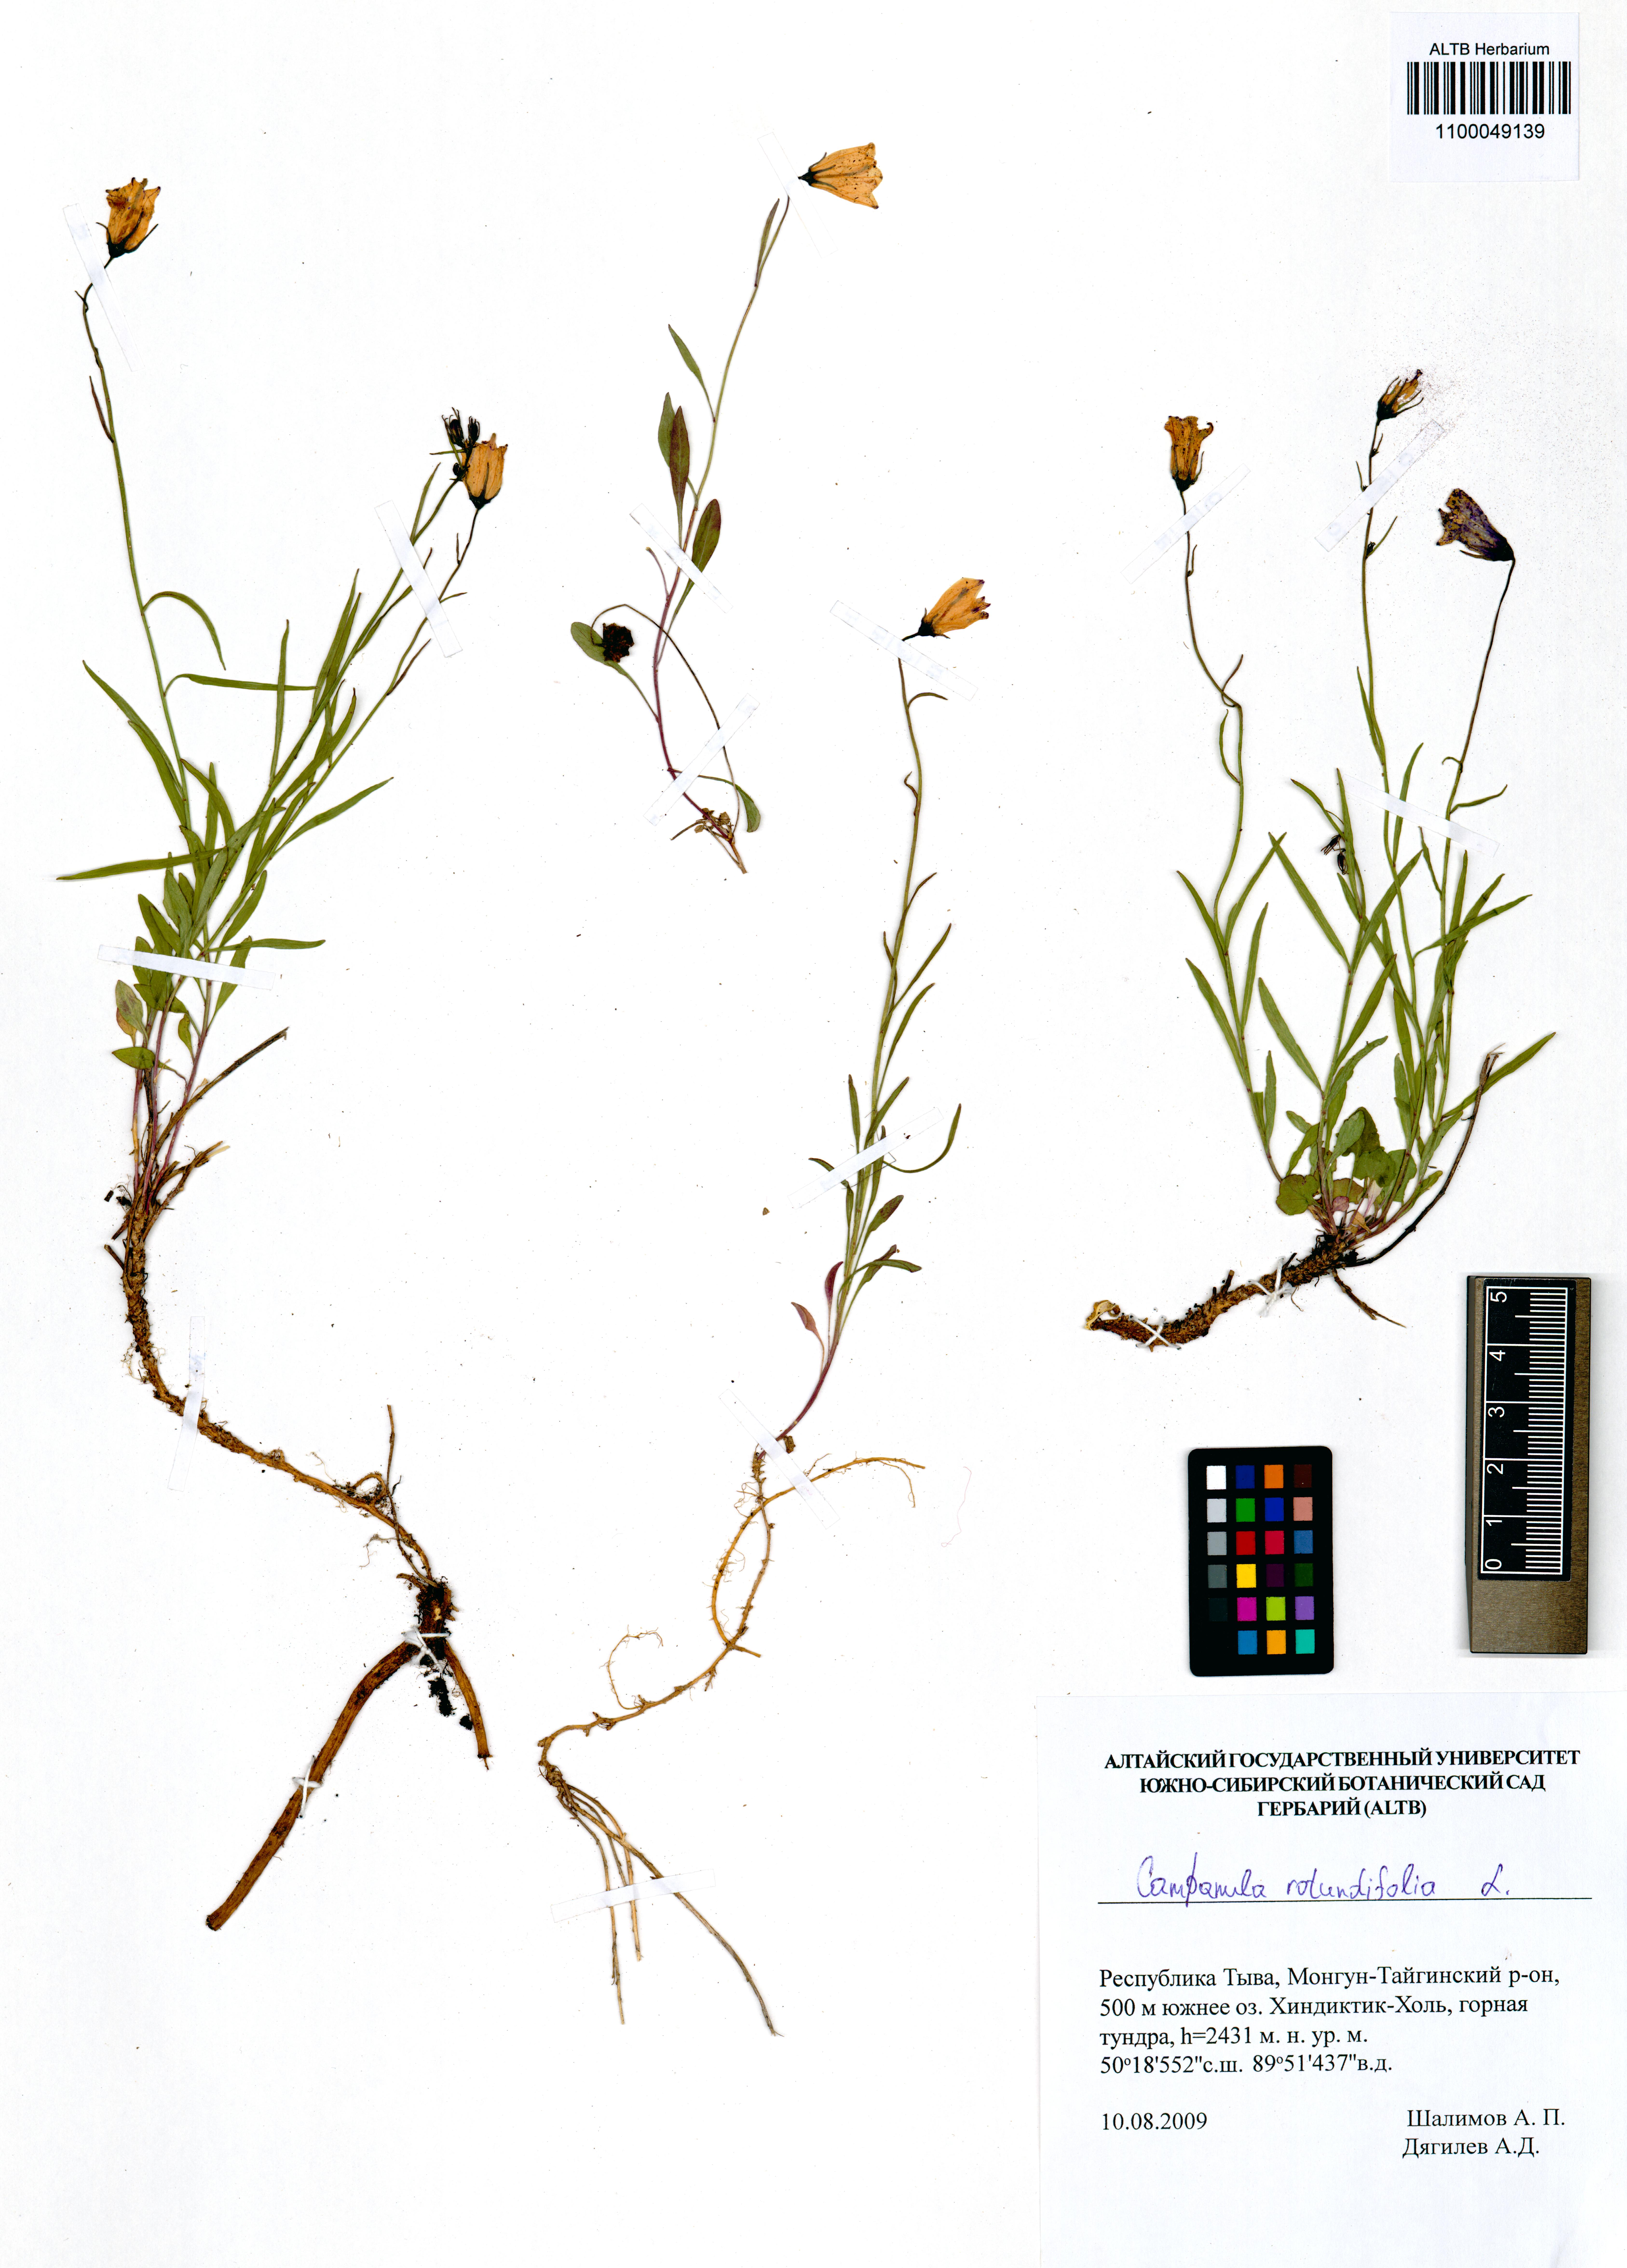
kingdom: Plantae
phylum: Tracheophyta
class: Magnoliopsida
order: Asterales
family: Campanulaceae
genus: Campanula
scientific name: Campanula rotundifolia
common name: Harebell
